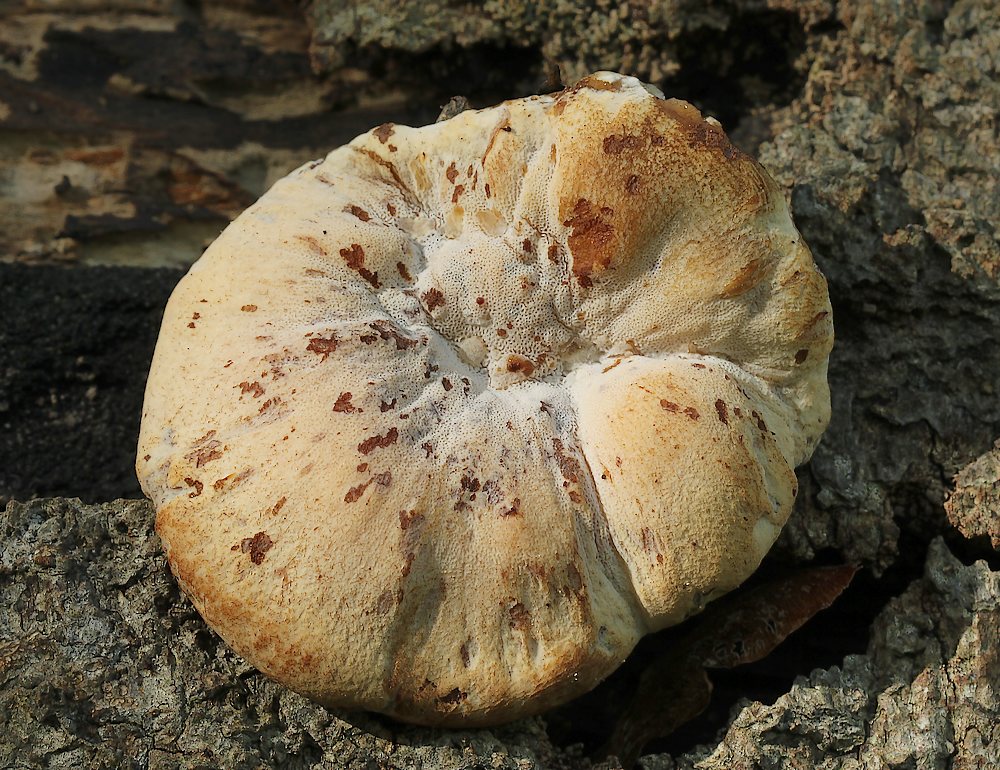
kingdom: Fungi
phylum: Basidiomycota
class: Agaricomycetes
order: Polyporales
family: Ischnodermataceae
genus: Ischnoderma
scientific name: Ischnoderma resinosum
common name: løv-tjæreporesvamp
